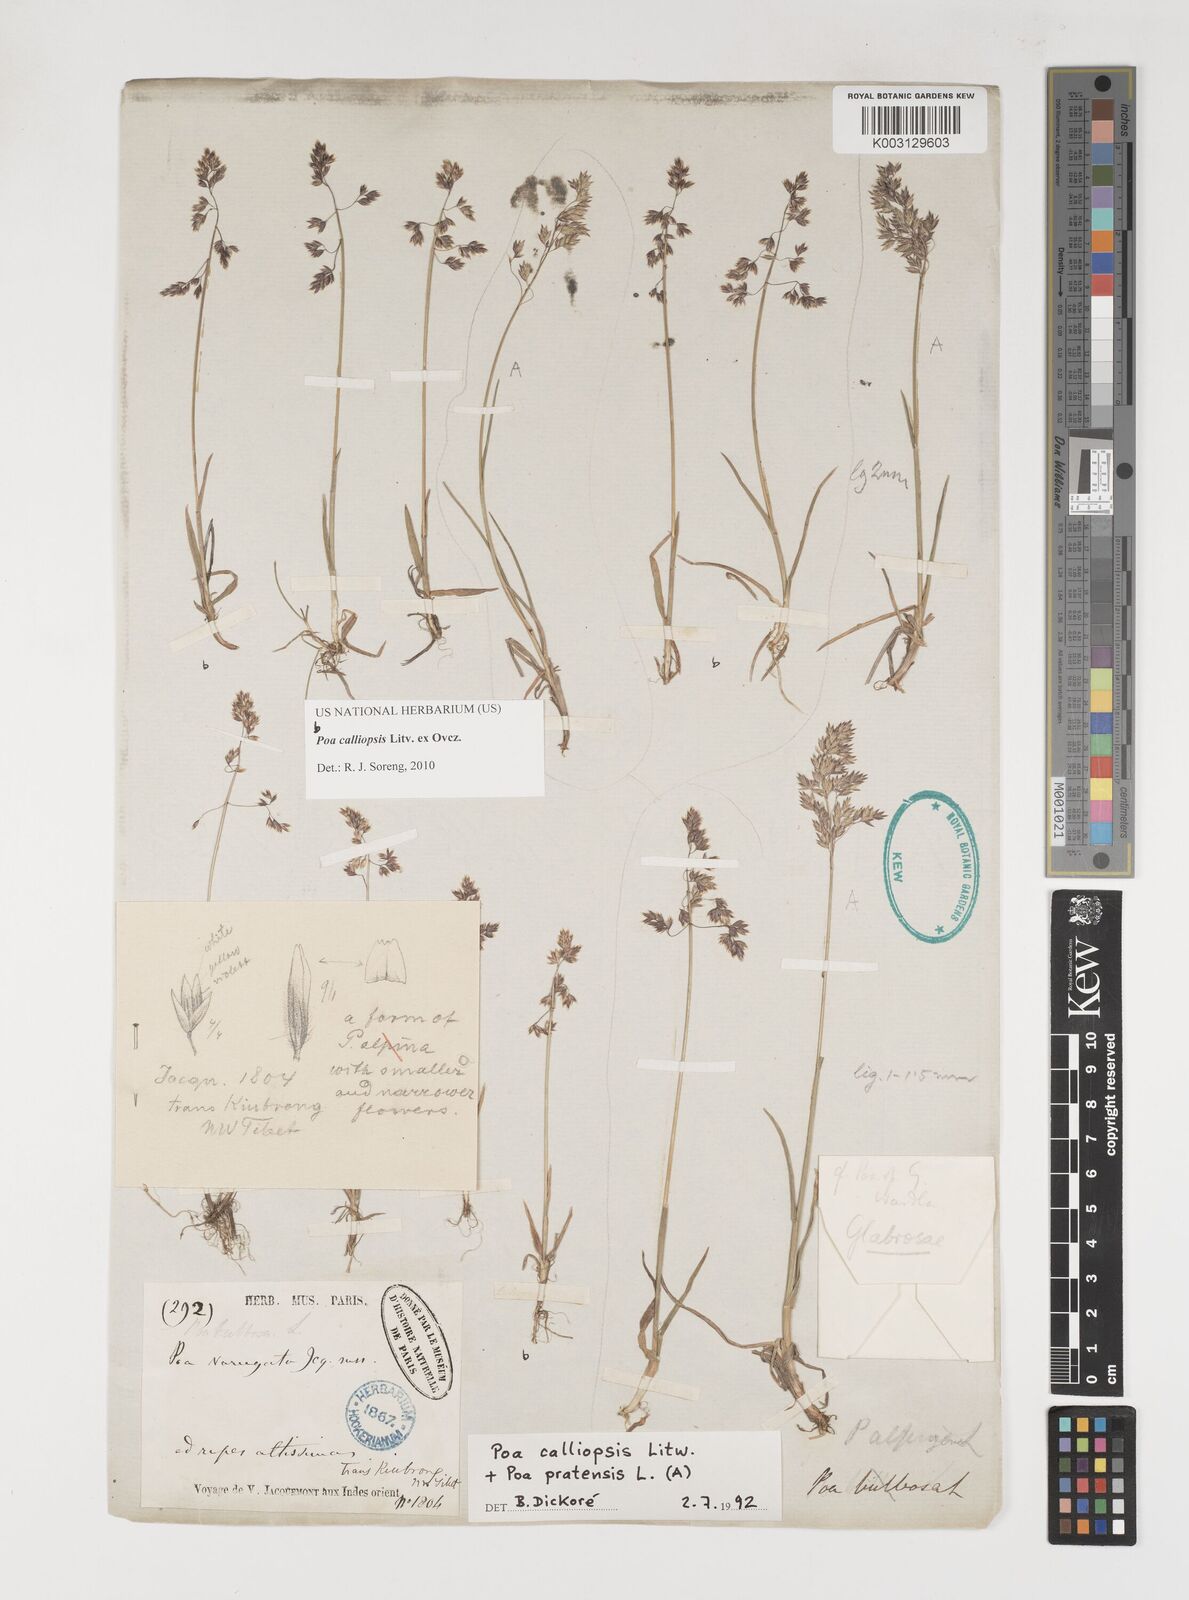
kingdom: Plantae
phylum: Tracheophyta
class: Liliopsida
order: Poales
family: Poaceae
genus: Poa
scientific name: Poa calliopsis
